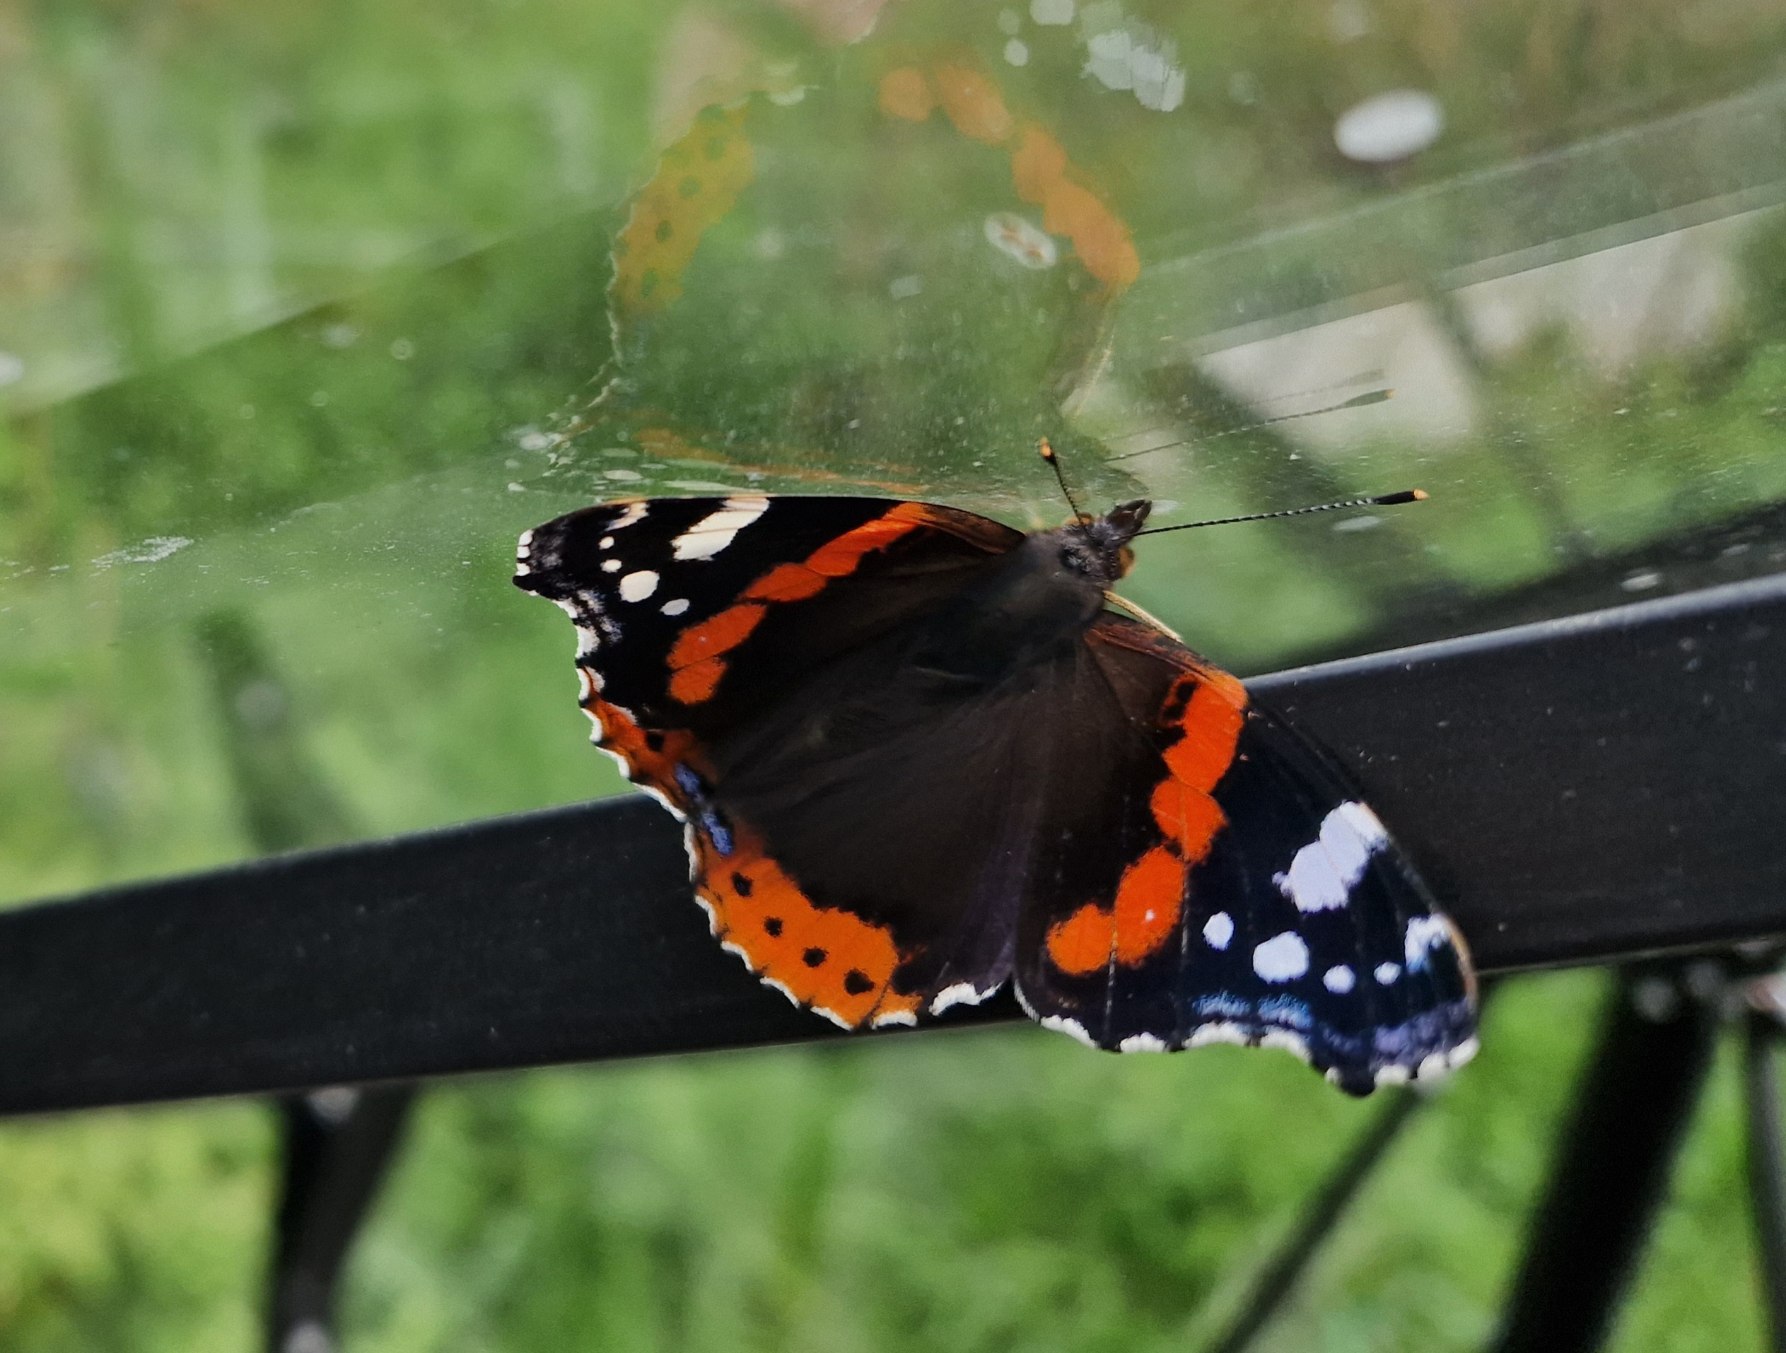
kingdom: Animalia
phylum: Arthropoda
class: Insecta
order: Lepidoptera
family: Nymphalidae
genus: Vanessa
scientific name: Vanessa atalanta
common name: Admiral
